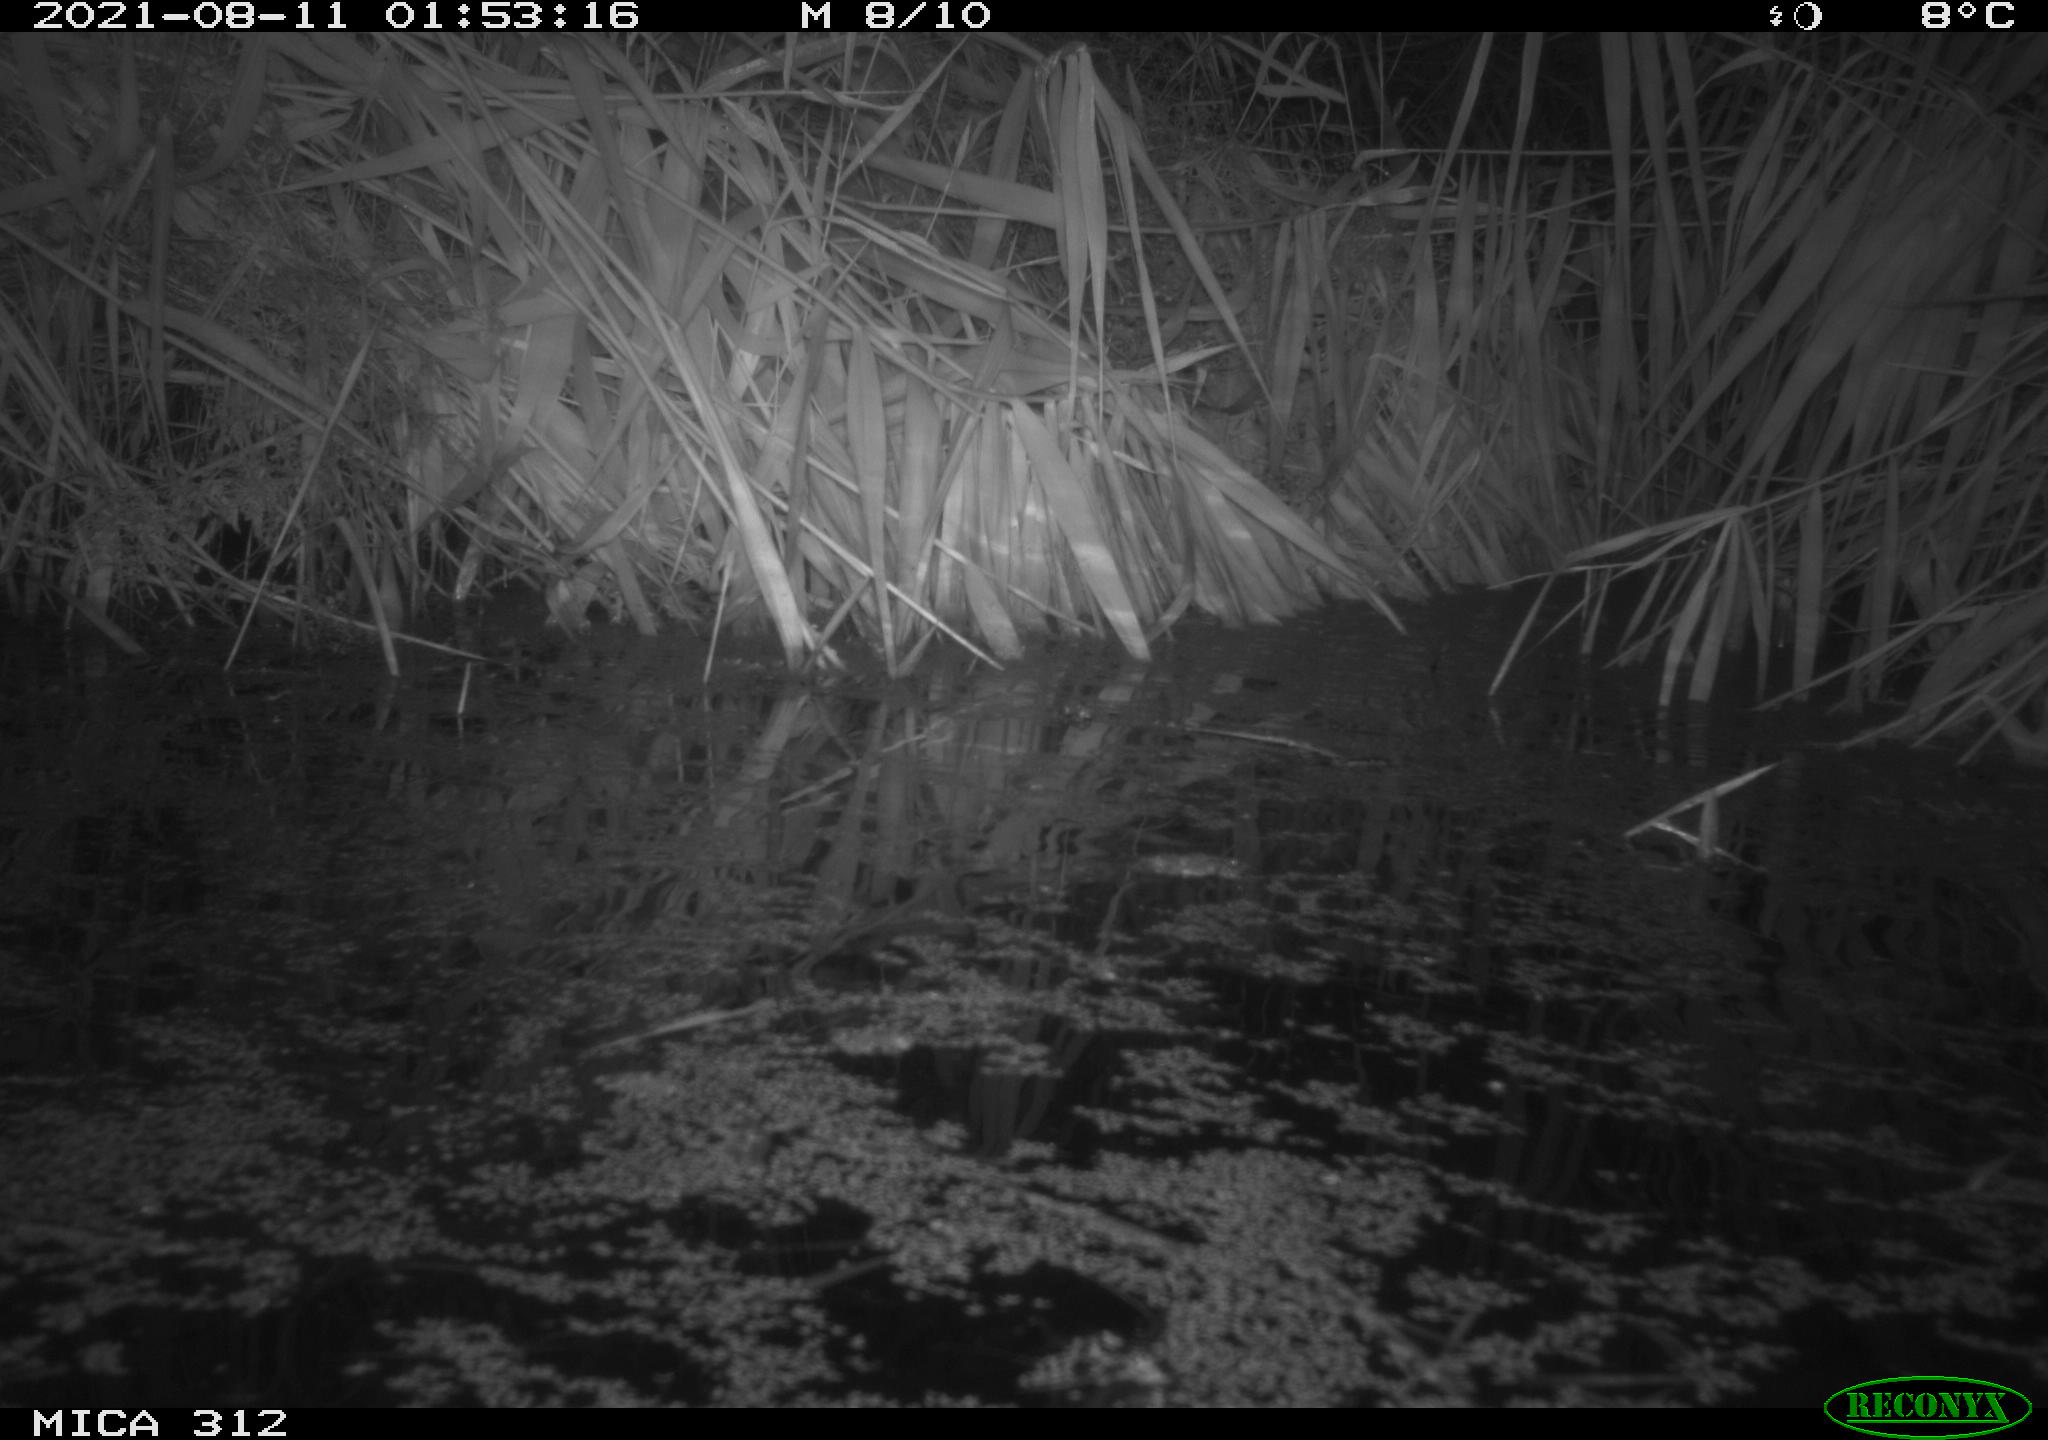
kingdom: Animalia
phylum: Chordata
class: Mammalia
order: Rodentia
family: Muridae
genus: Rattus
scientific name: Rattus norvegicus
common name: Brown rat
